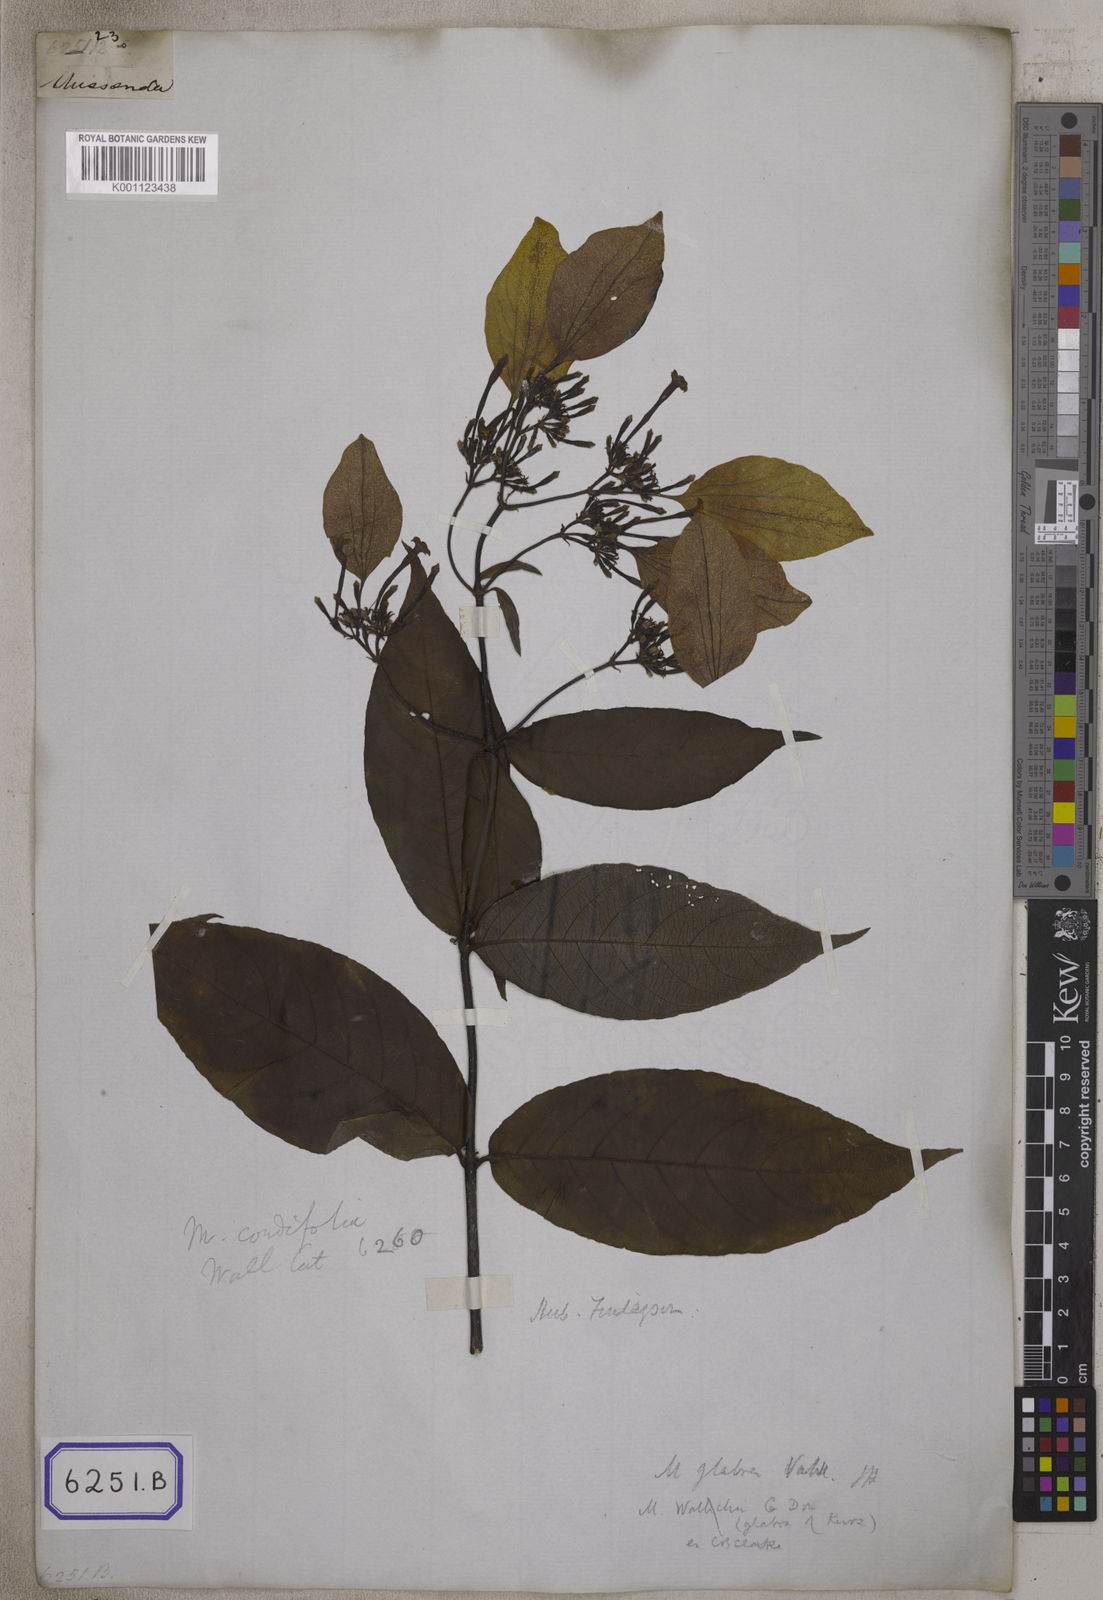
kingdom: Plantae
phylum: Tracheophyta
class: Magnoliopsida
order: Gentianales
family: Rubiaceae
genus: Mussaenda
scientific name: Mussaenda
